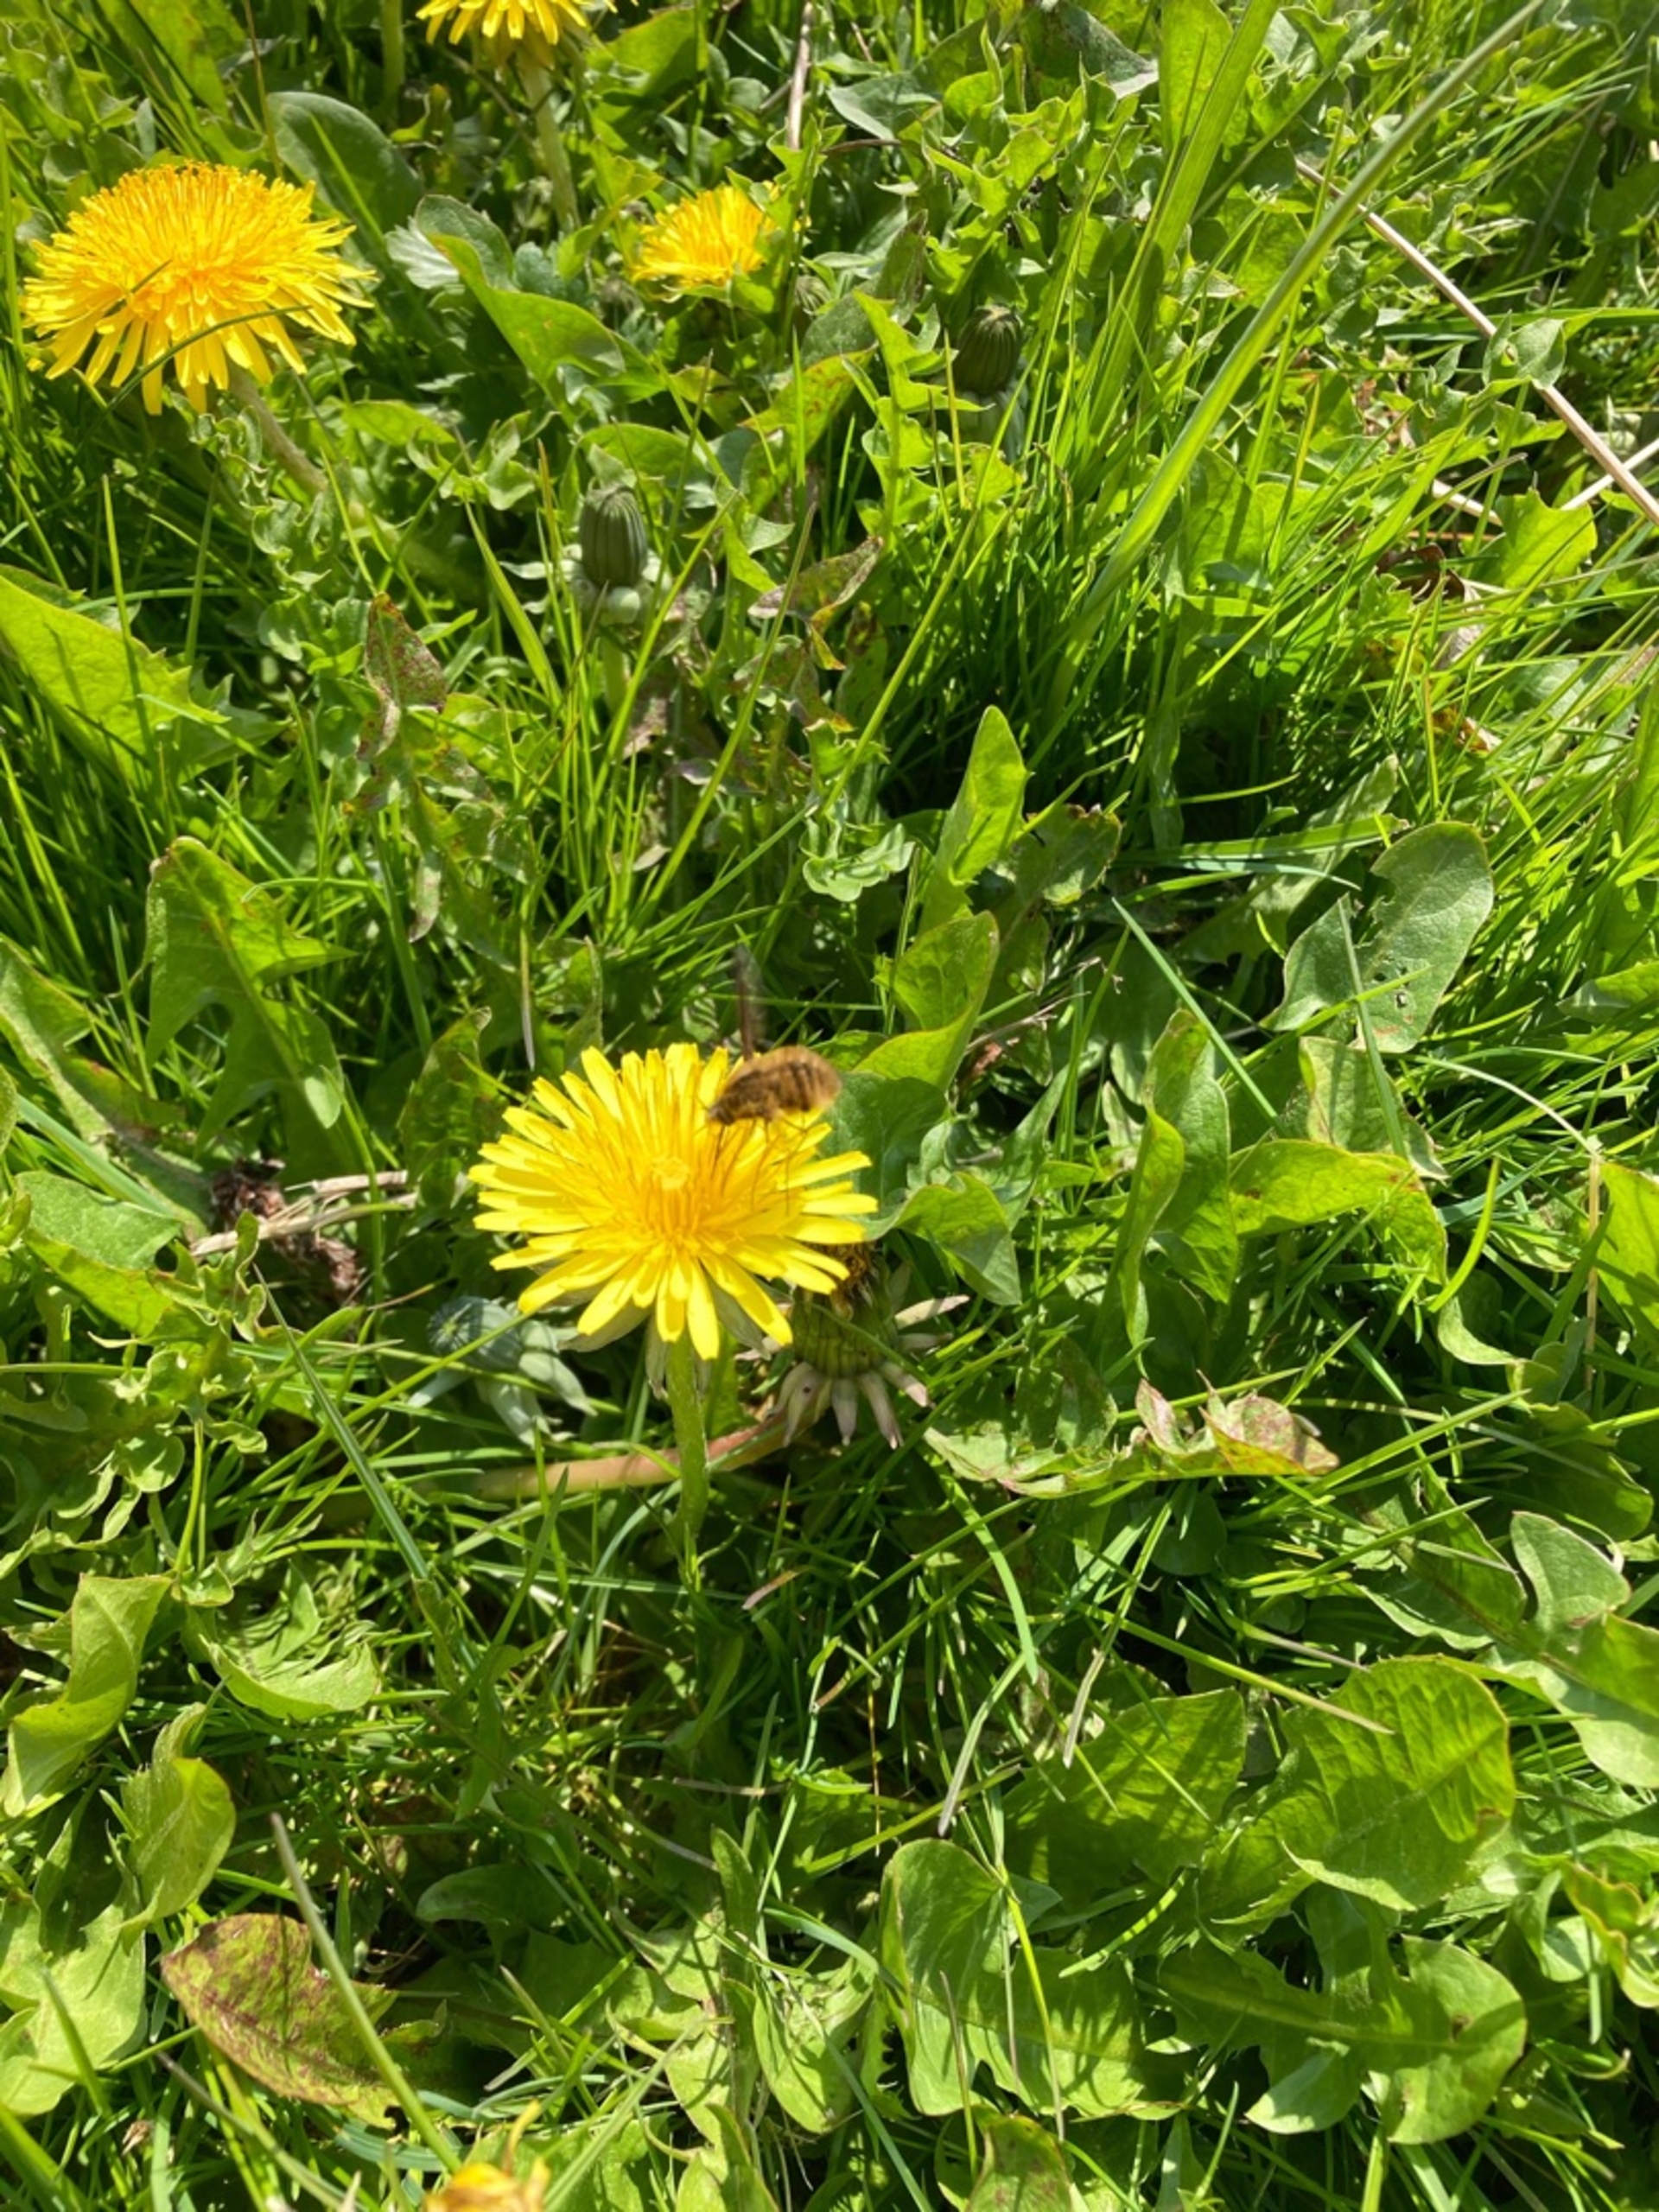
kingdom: Animalia
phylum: Arthropoda
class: Insecta
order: Diptera
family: Bombyliidae
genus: Bombylius
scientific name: Bombylius major
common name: Stor humleflue
